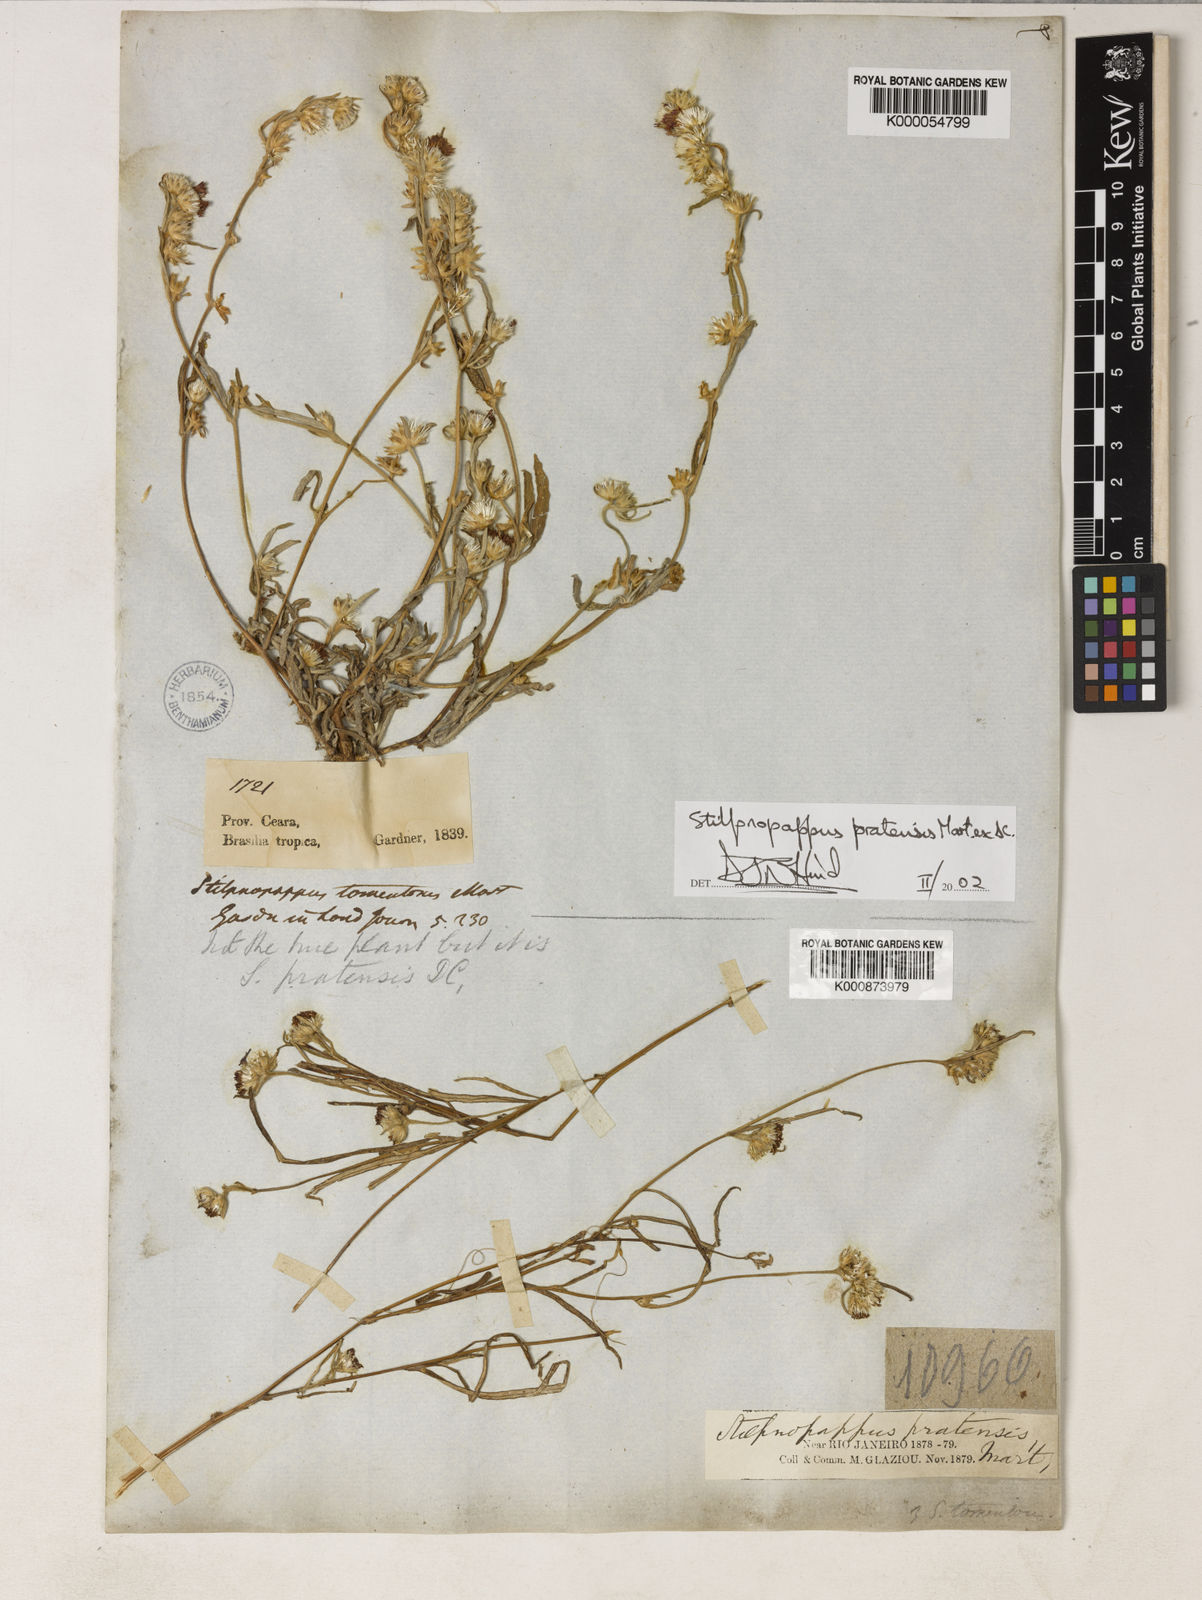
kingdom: Plantae
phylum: Tracheophyta
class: Magnoliopsida
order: Asterales
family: Asteraceae
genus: Stilpnopappus
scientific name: Stilpnopappus pratensis
